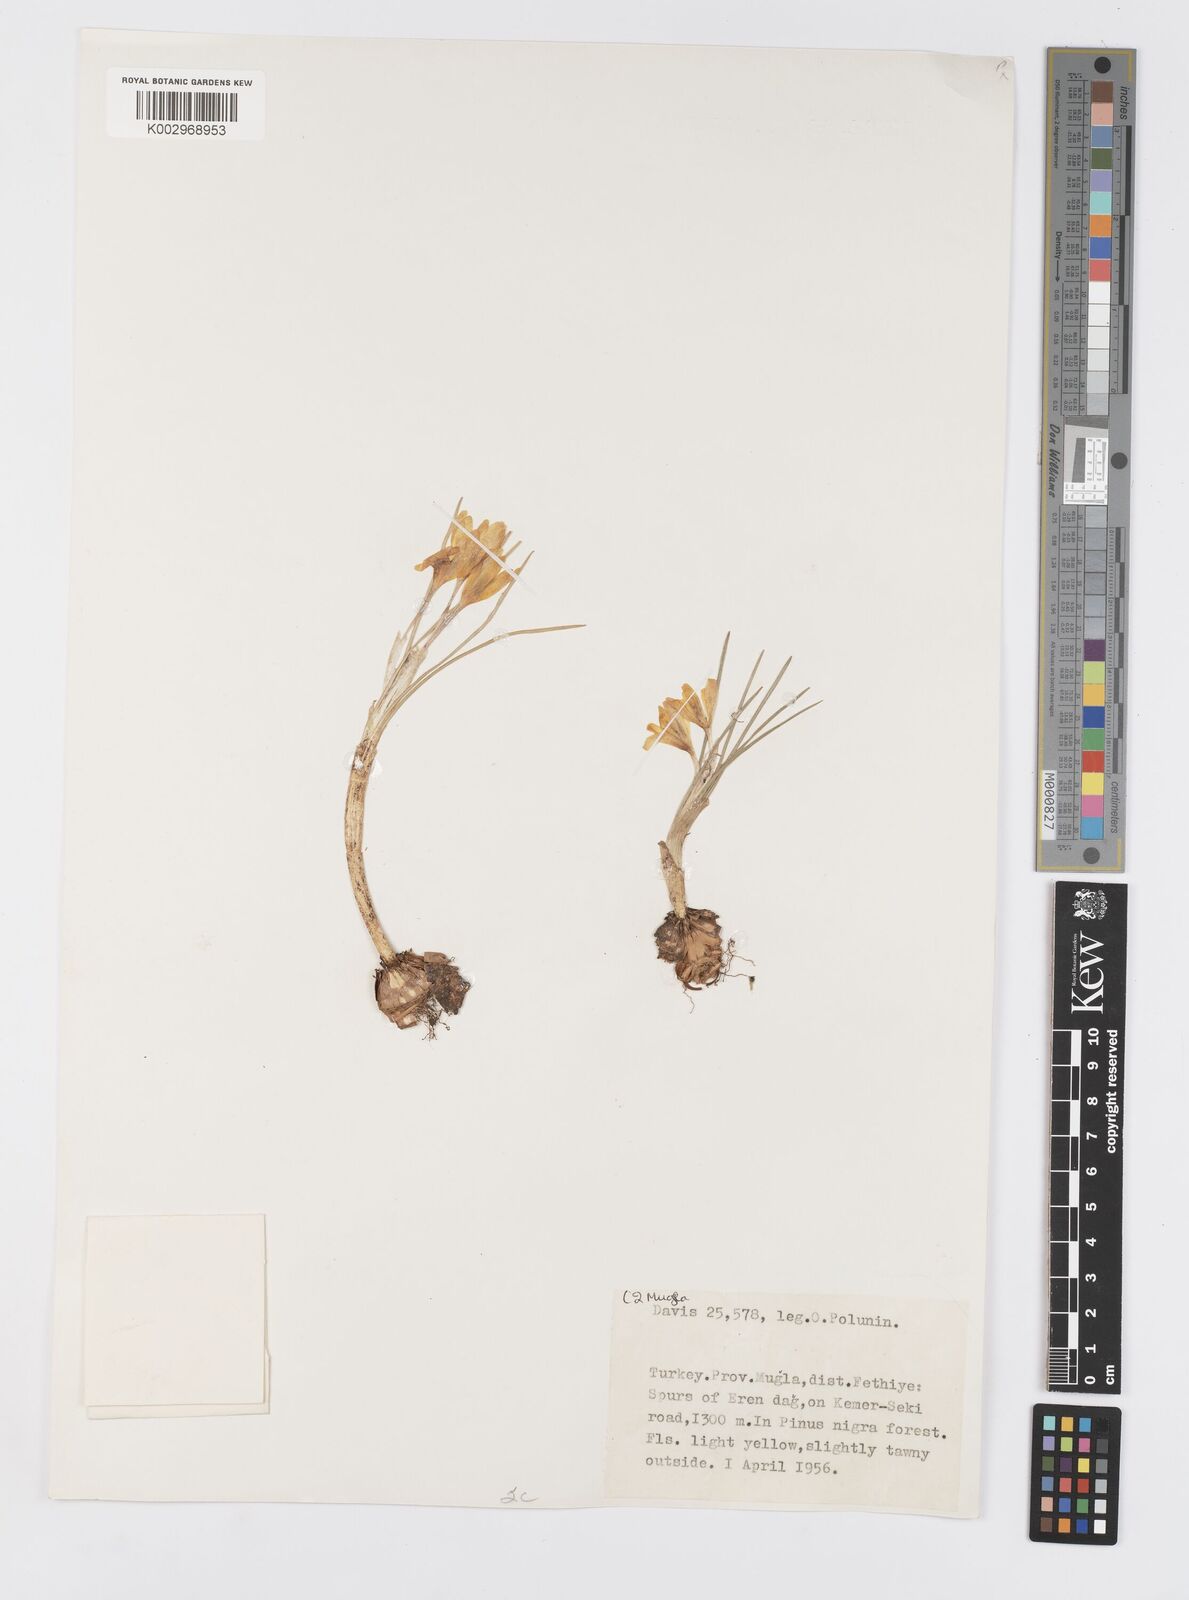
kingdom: Plantae
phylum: Tracheophyta
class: Liliopsida
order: Asparagales
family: Iridaceae
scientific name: Iridaceae
